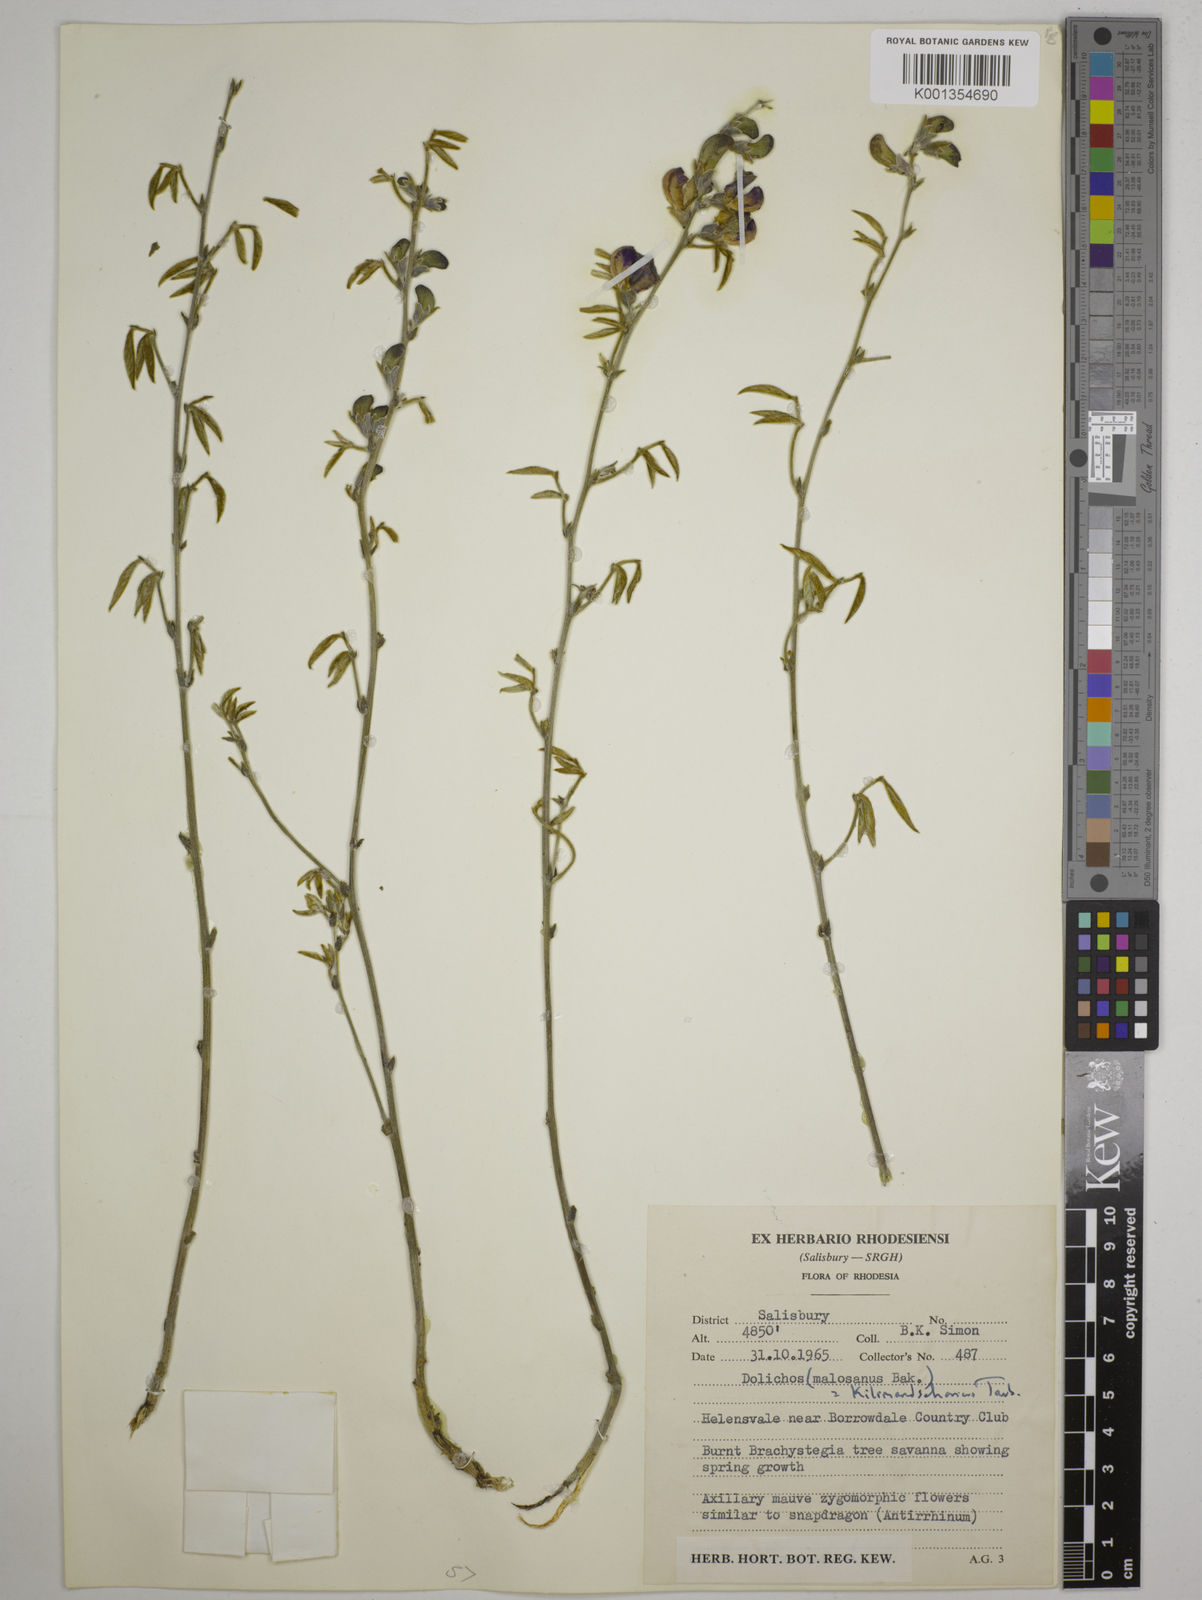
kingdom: Plantae
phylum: Tracheophyta
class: Magnoliopsida
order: Fabales
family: Fabaceae
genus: Dolichos
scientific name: Dolichos kilimandscharicus
